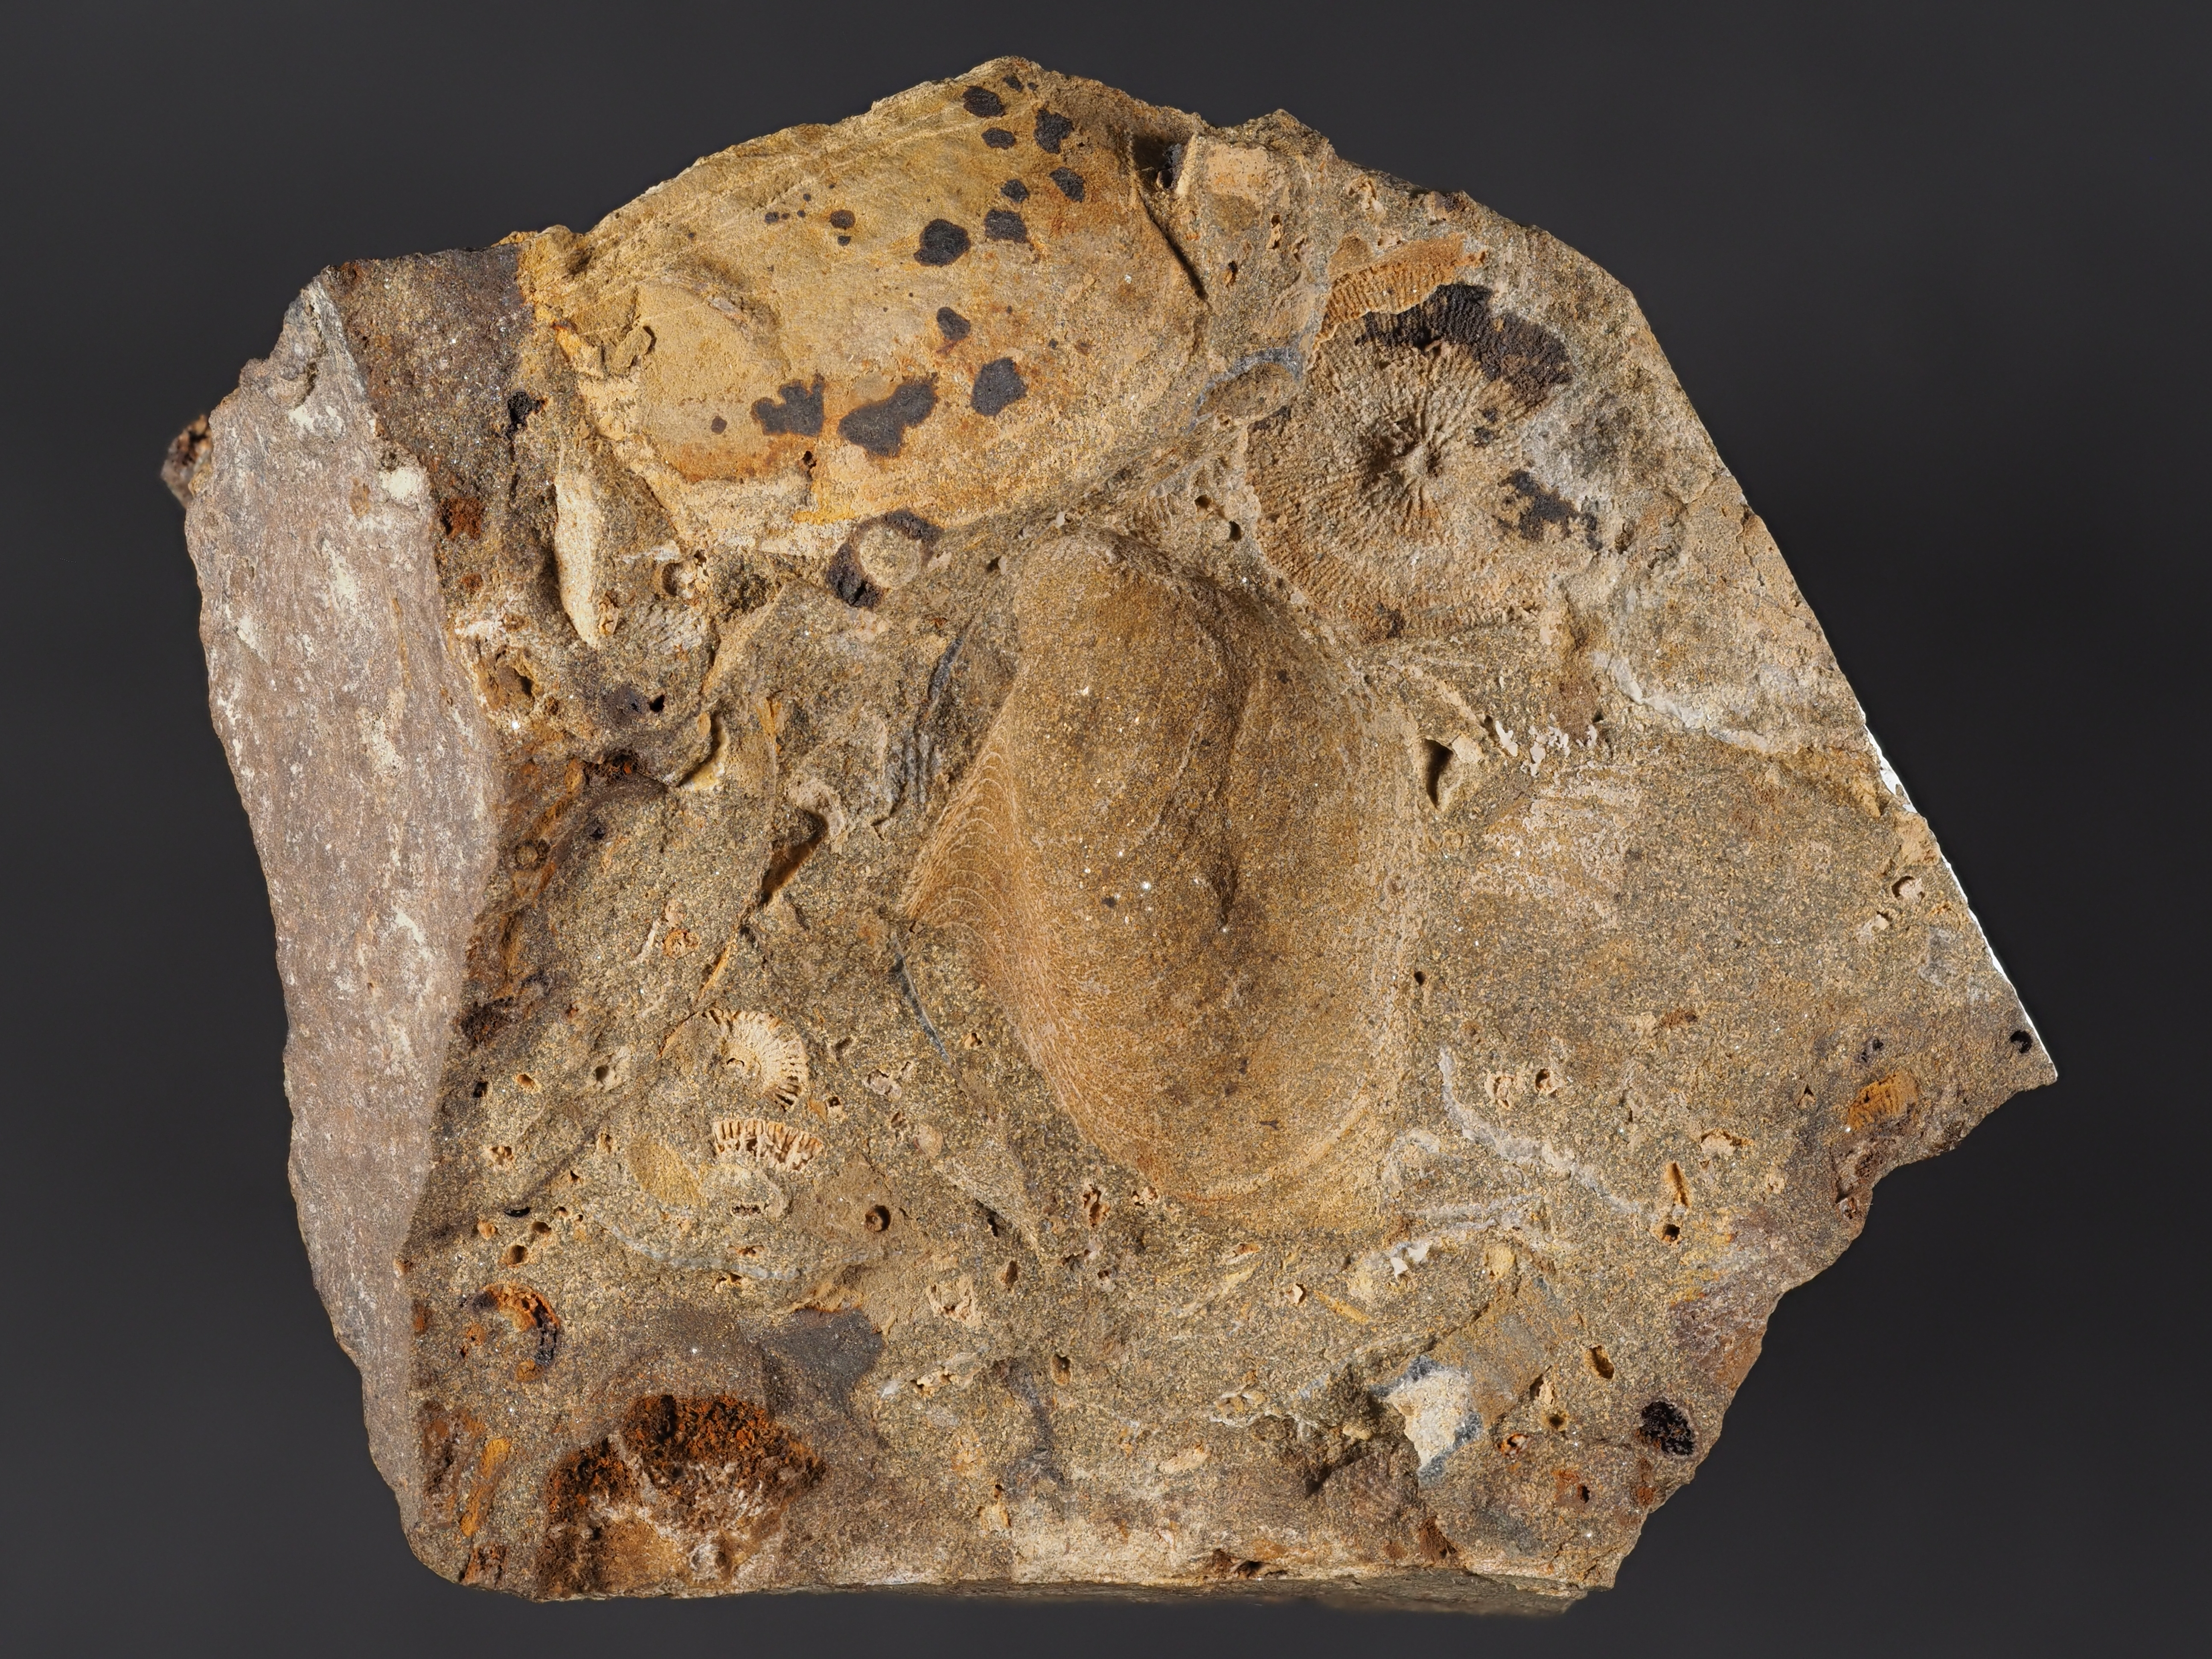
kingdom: Animalia
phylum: Mollusca
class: Bivalvia
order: Ostreida
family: Pterineidae
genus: Leptodesma
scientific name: Leptodesma
